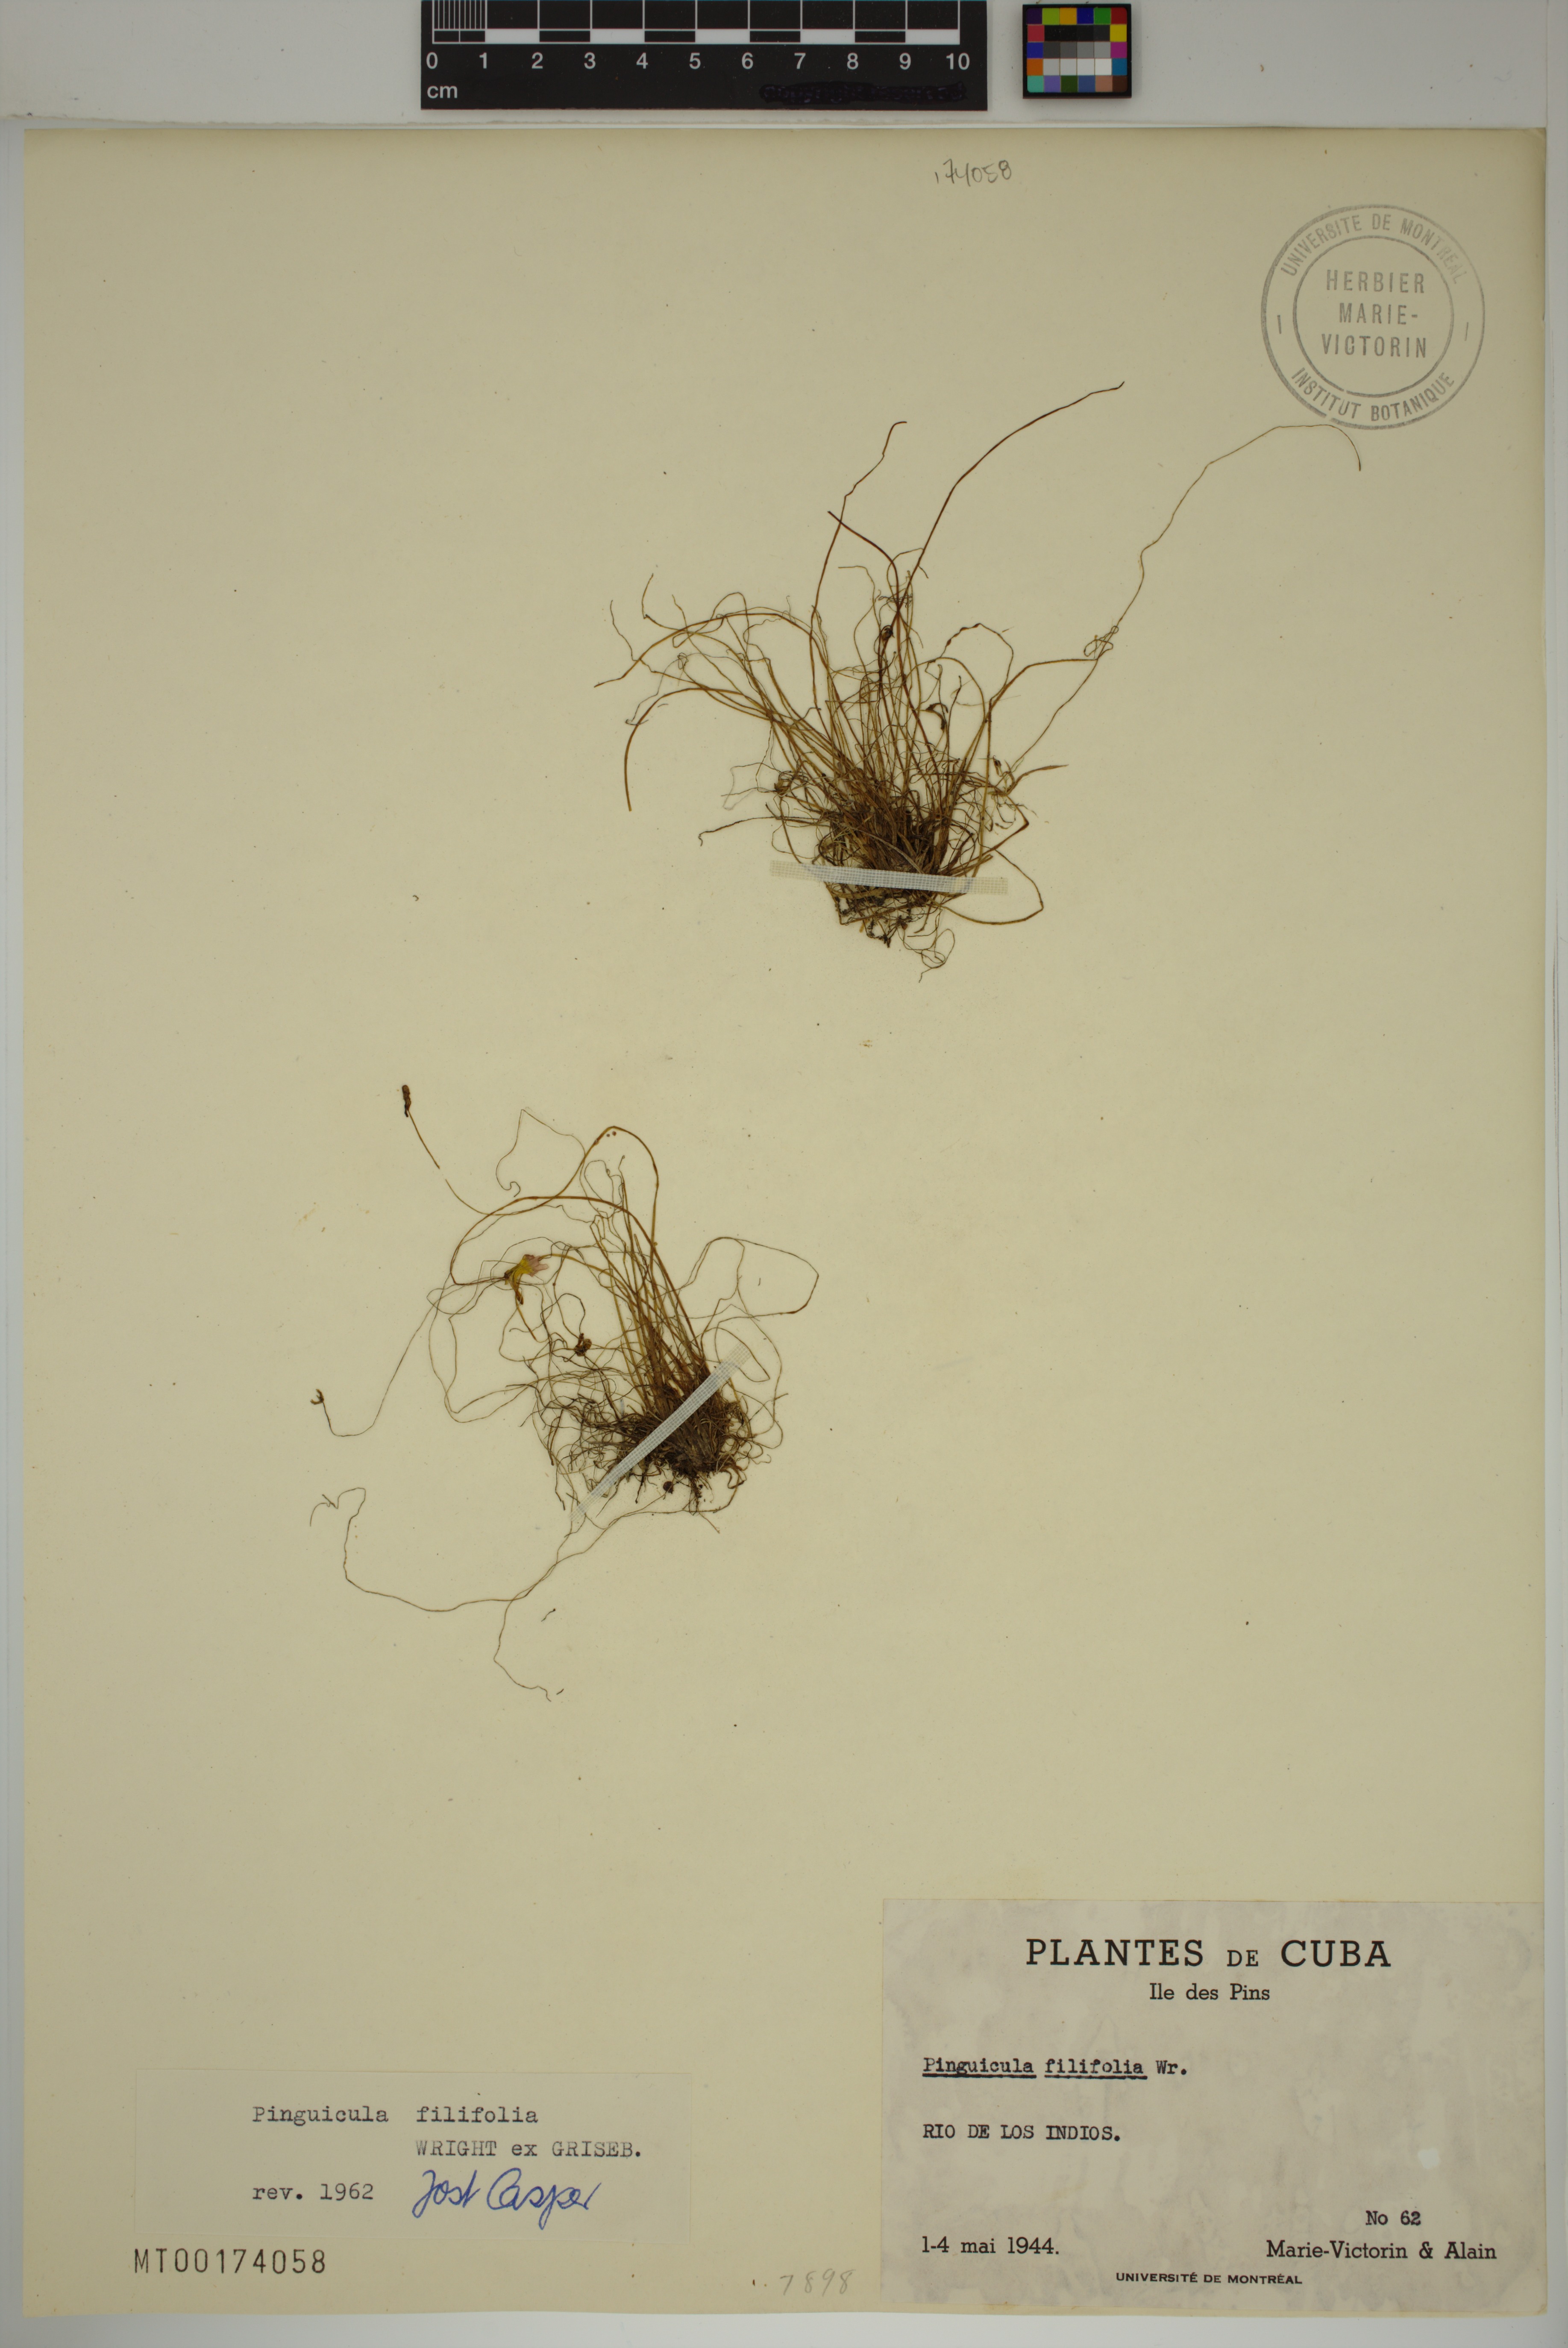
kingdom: Plantae
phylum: Tracheophyta
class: Magnoliopsida
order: Lamiales
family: Lentibulariaceae
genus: Pinguicula
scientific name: Pinguicula filifolia
